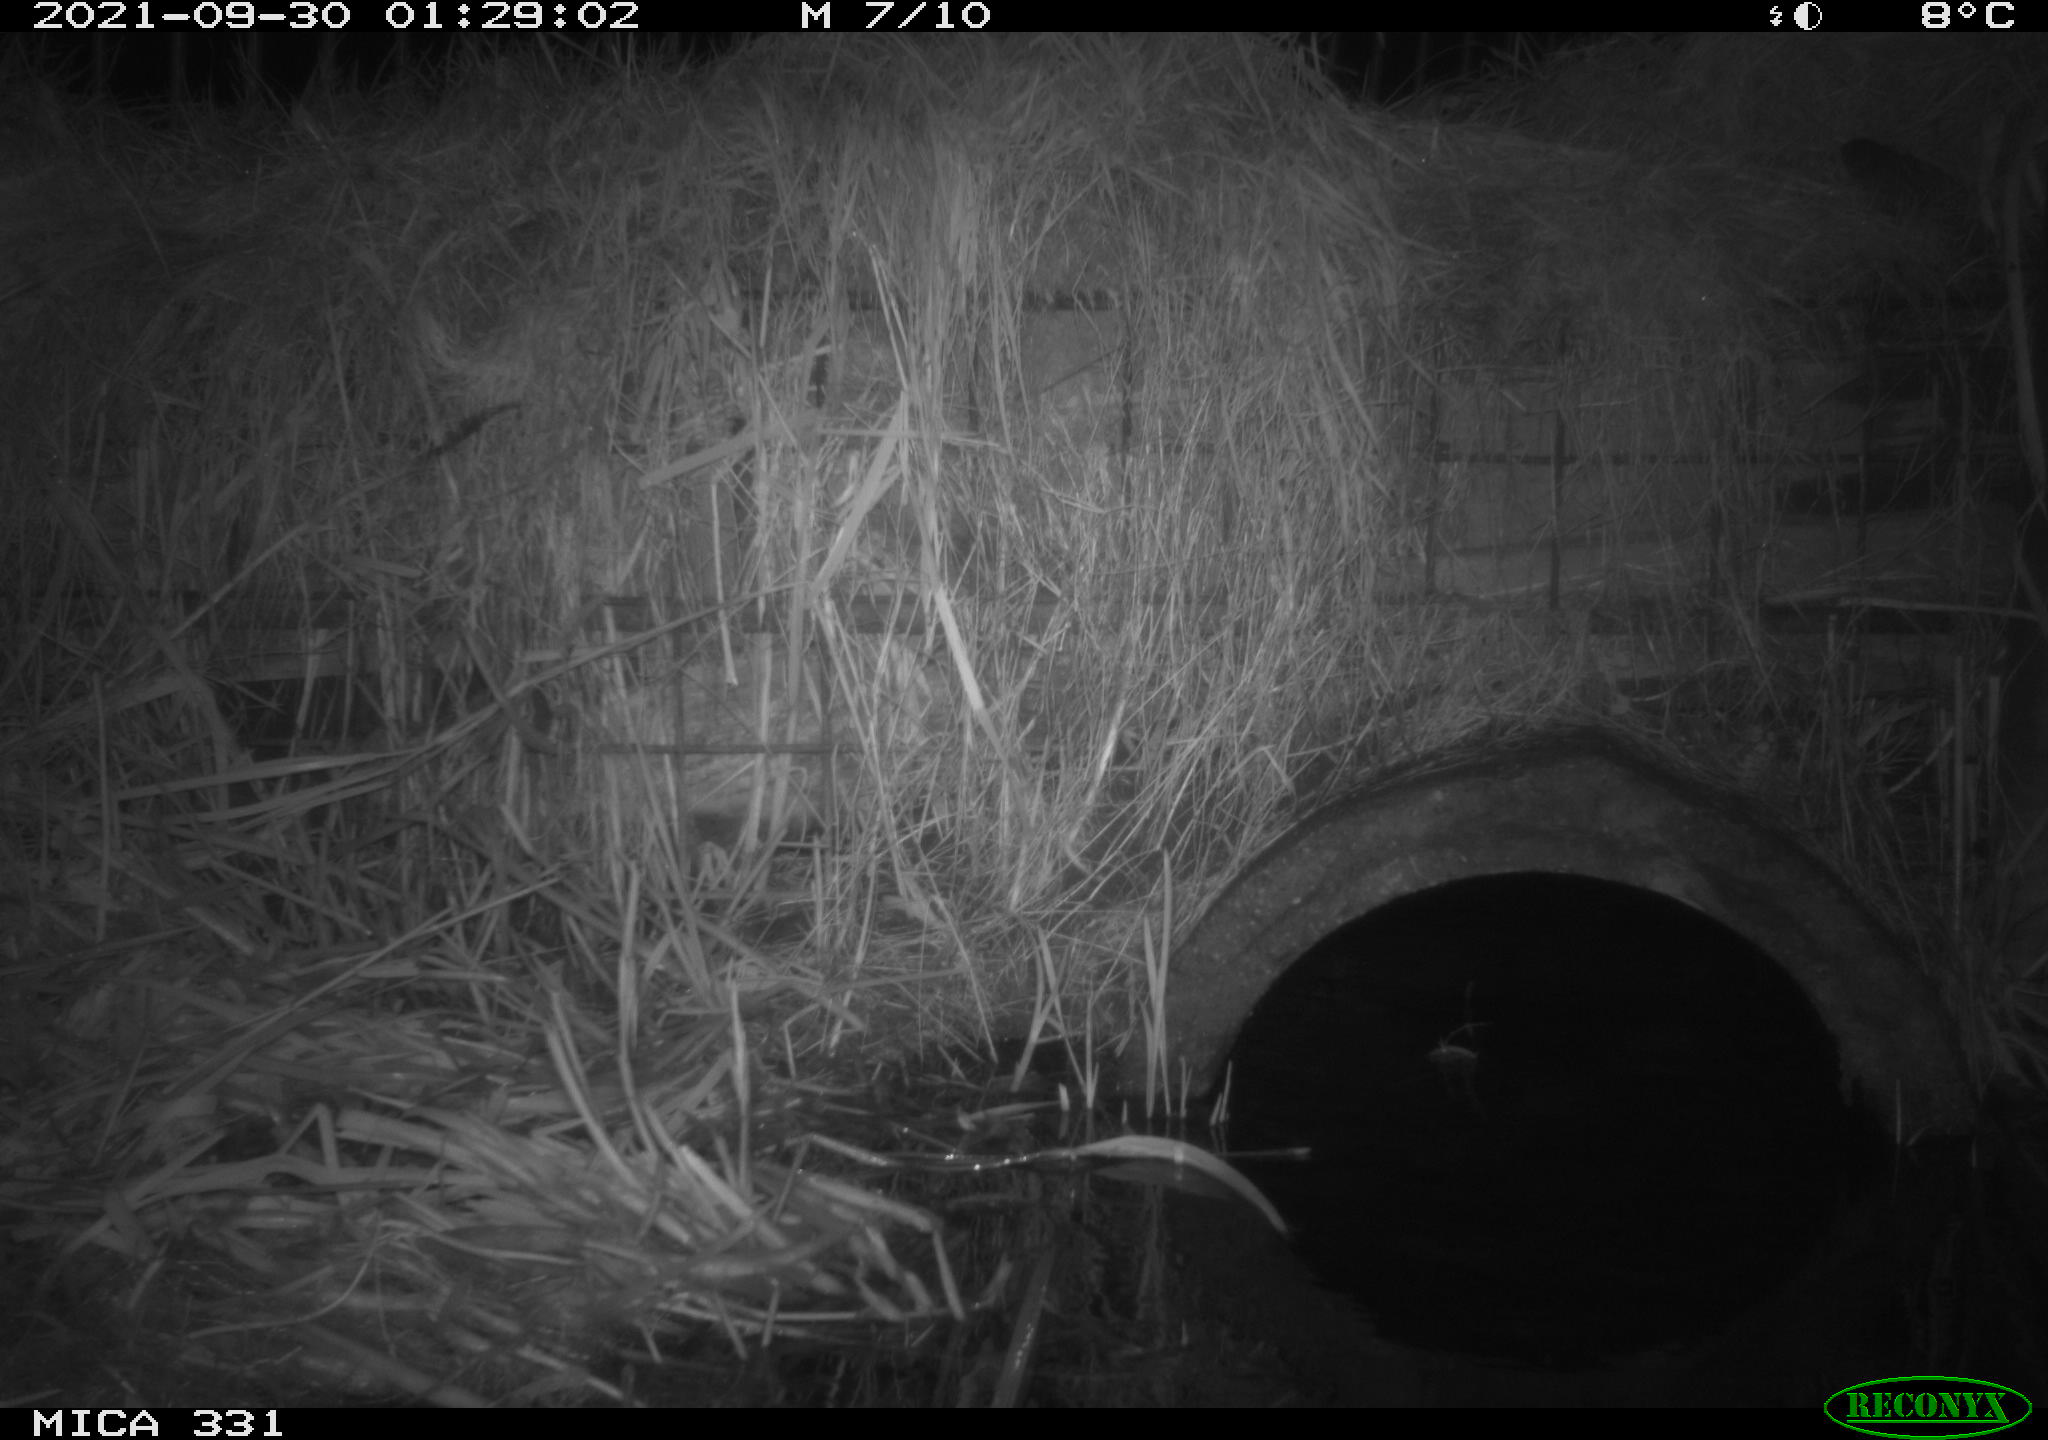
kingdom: Animalia
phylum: Chordata
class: Mammalia
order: Rodentia
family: Muridae
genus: Rattus
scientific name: Rattus norvegicus
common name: Brown rat
